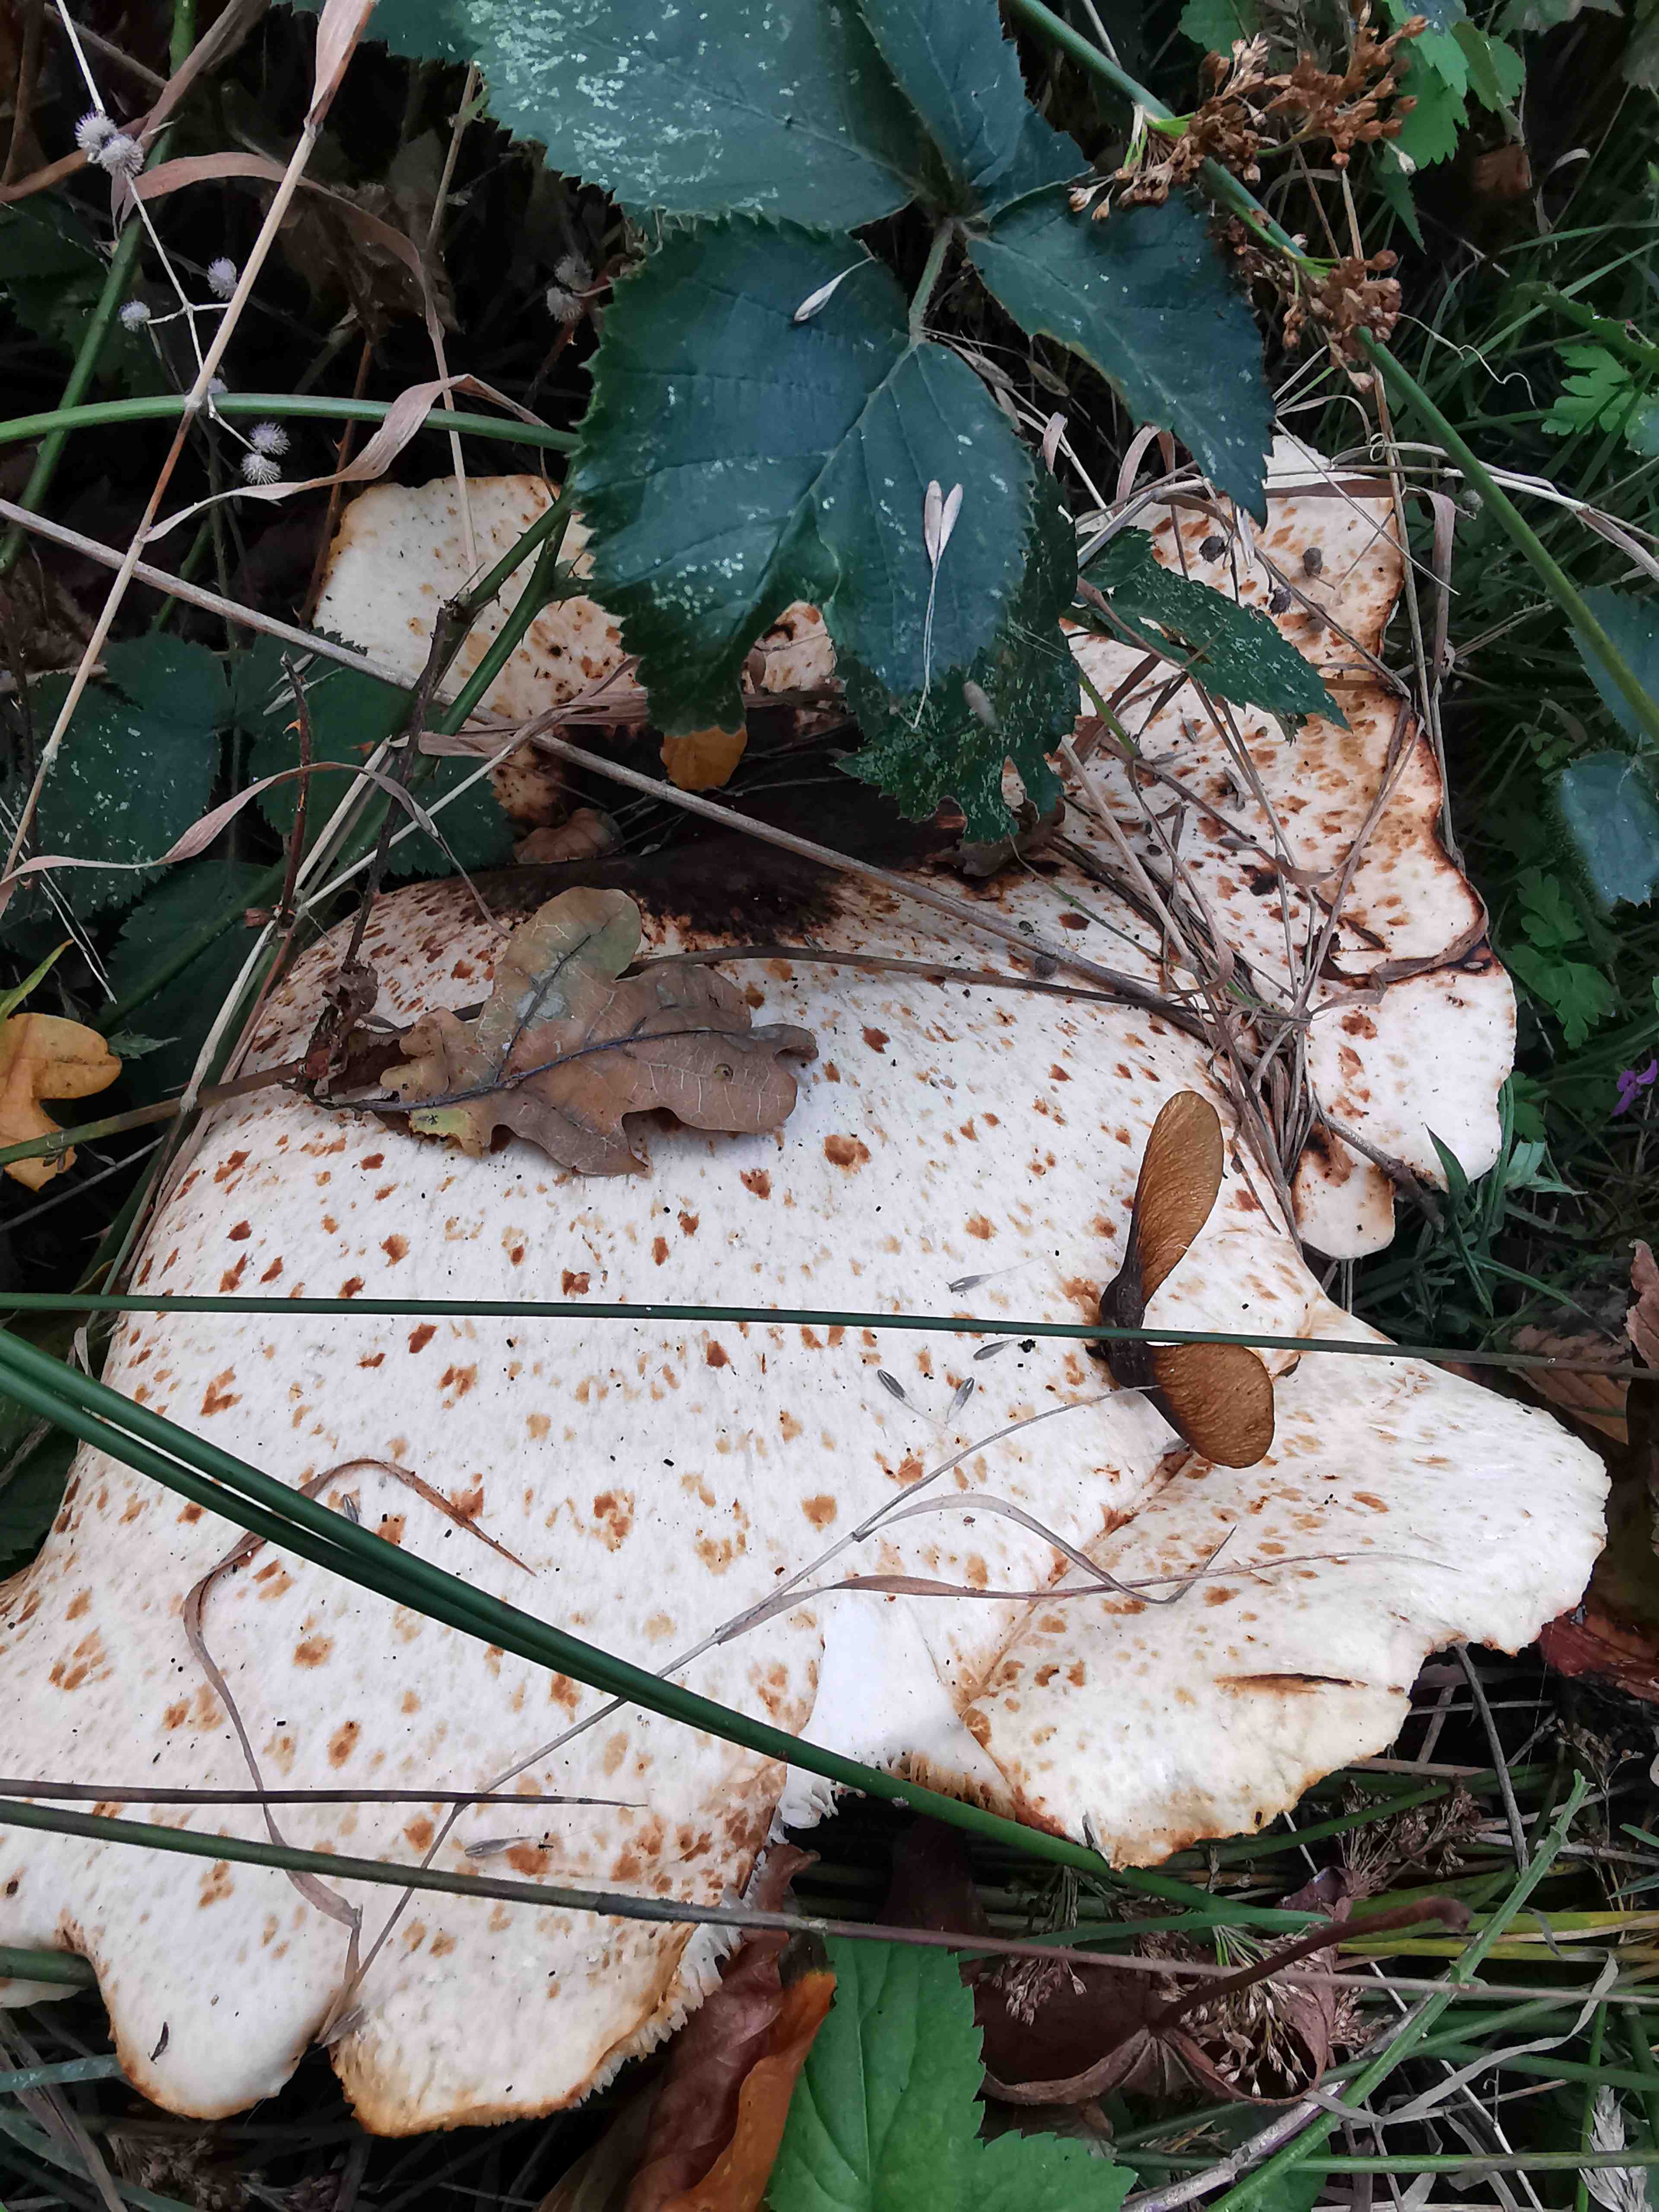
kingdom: Fungi
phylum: Basidiomycota
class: Agaricomycetes
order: Polyporales
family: Polyporaceae
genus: Cerioporus
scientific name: Cerioporus squamosus
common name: skællet stilkporesvamp
